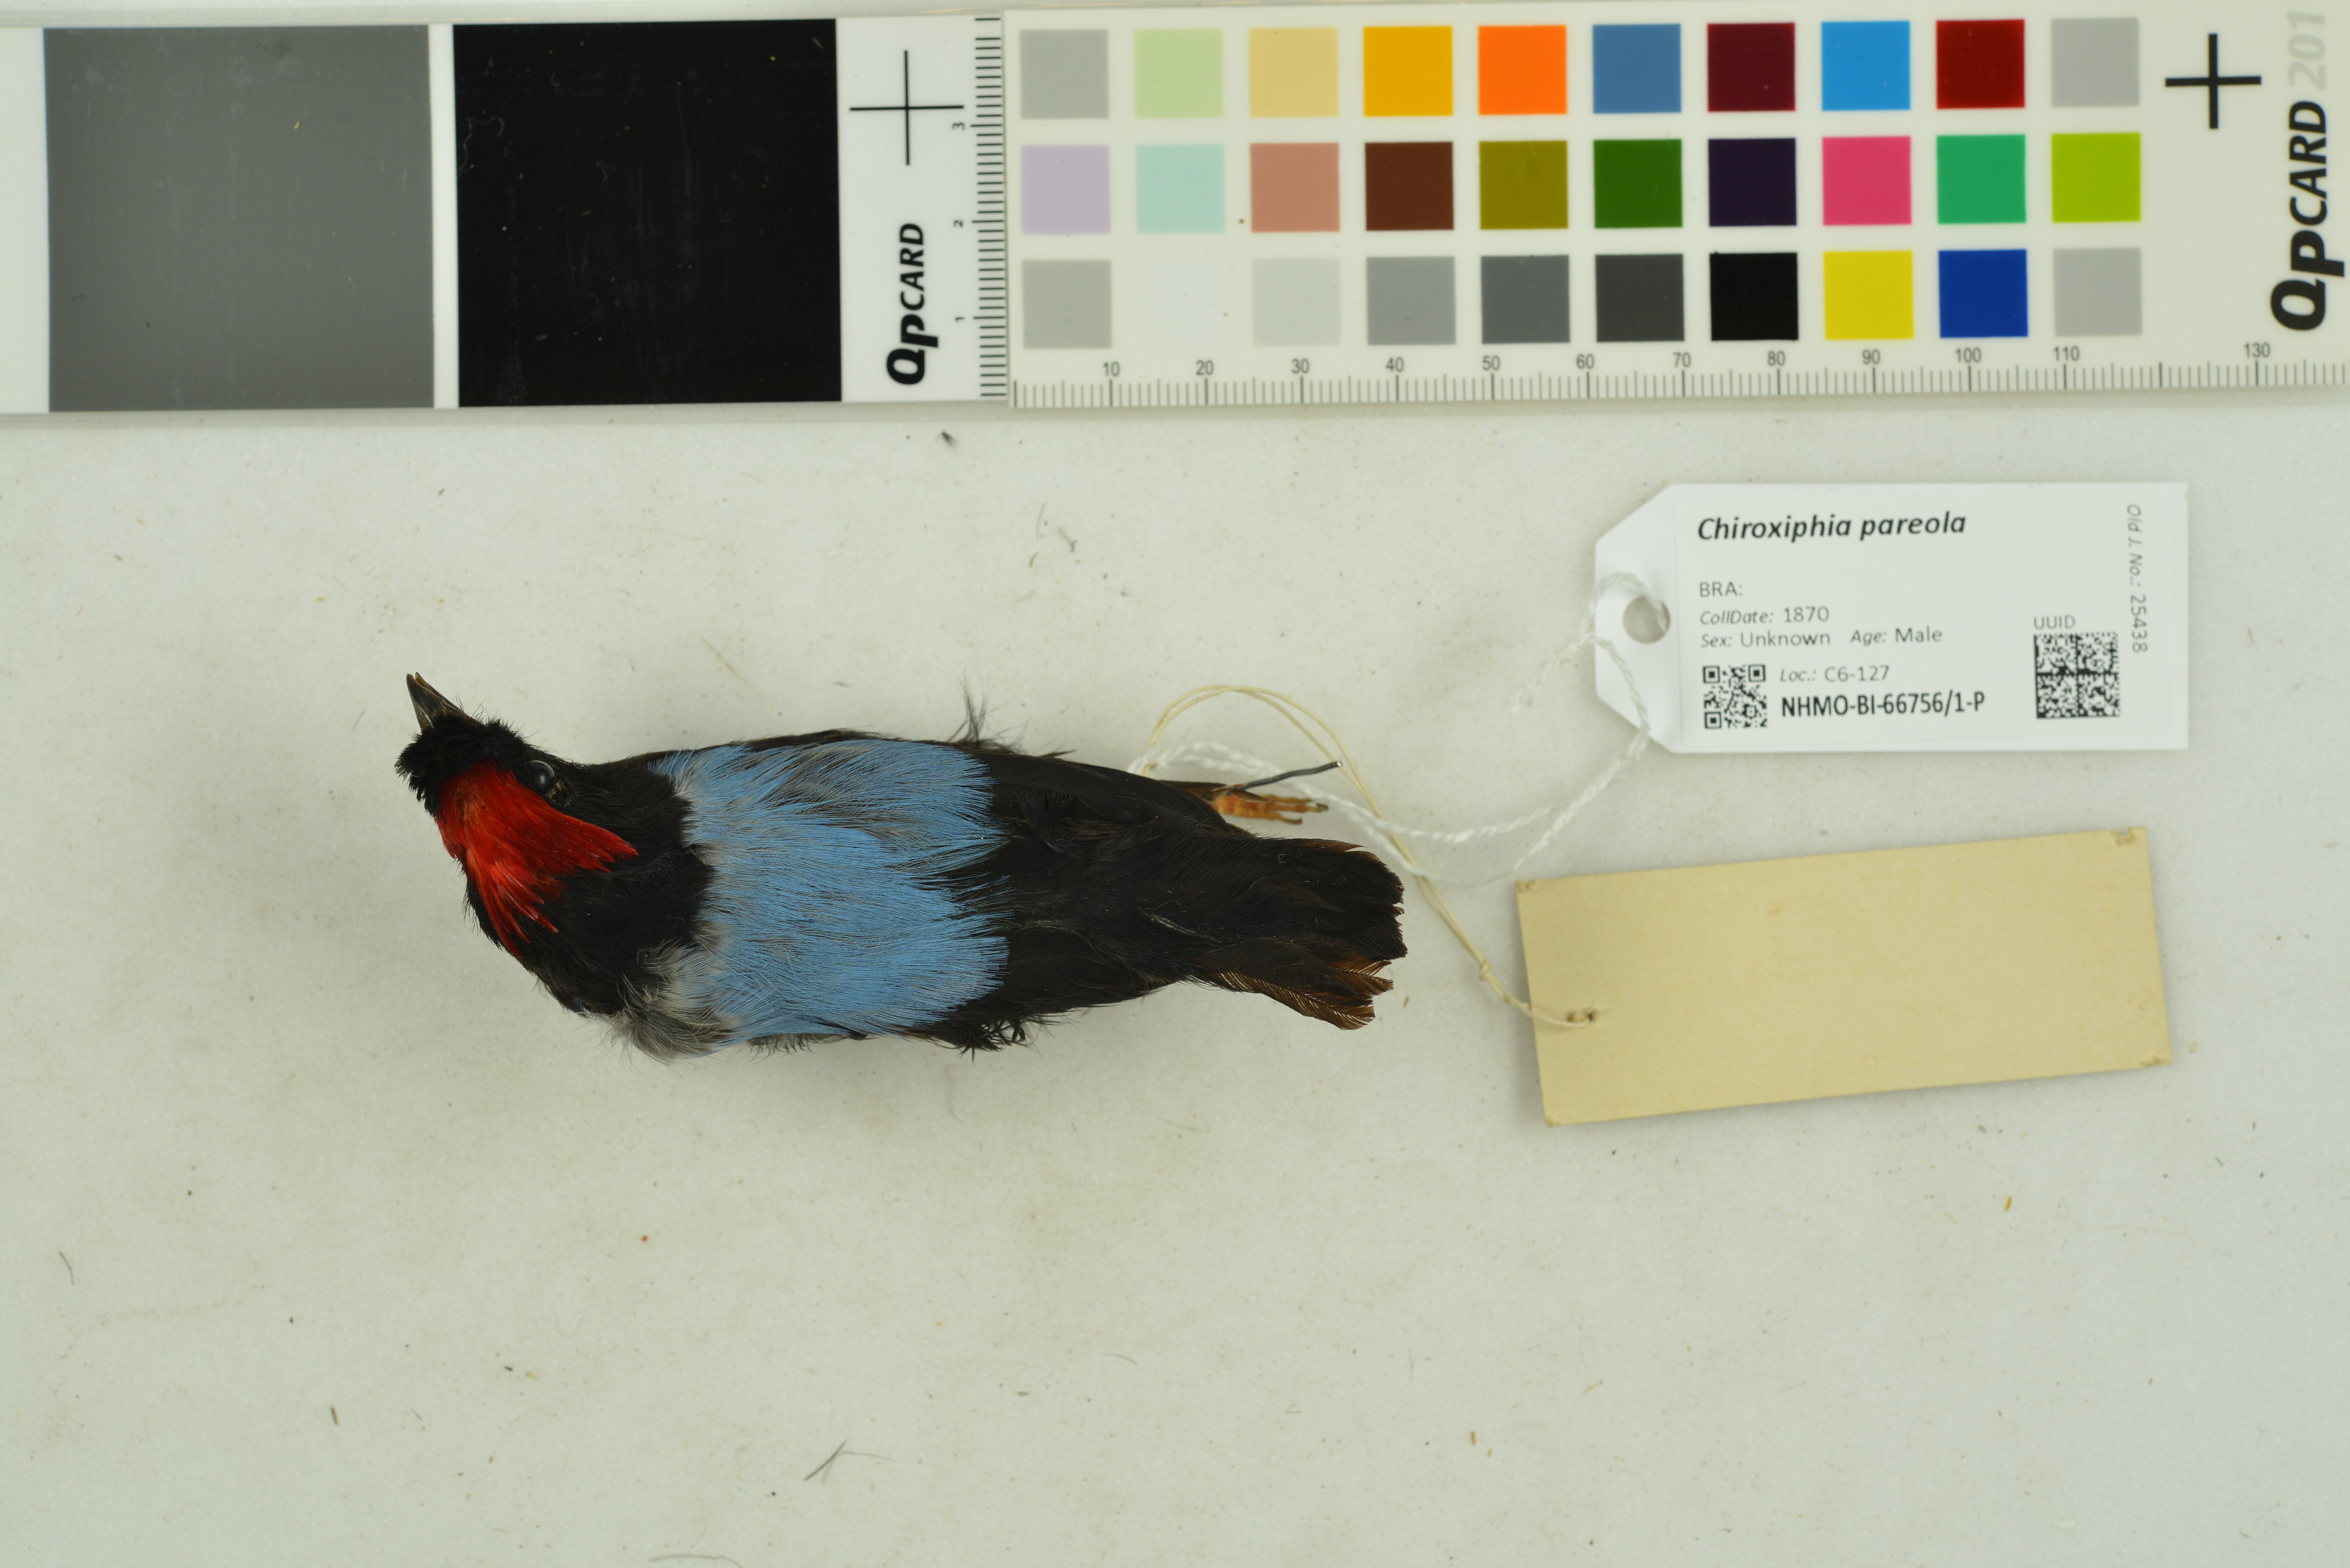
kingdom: Animalia
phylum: Chordata
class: Aves
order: Passeriformes
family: Pipridae
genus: Chiroxiphia
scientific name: Chiroxiphia pareola
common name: Blue-backed manakin
